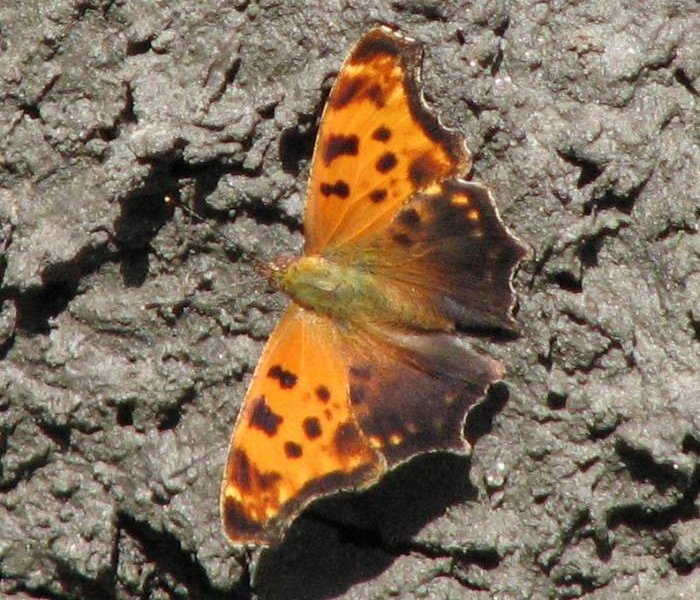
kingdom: Animalia
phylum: Arthropoda
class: Insecta
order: Lepidoptera
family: Nymphalidae
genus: Polygonia
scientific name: Polygonia comma
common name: Eastern Comma
